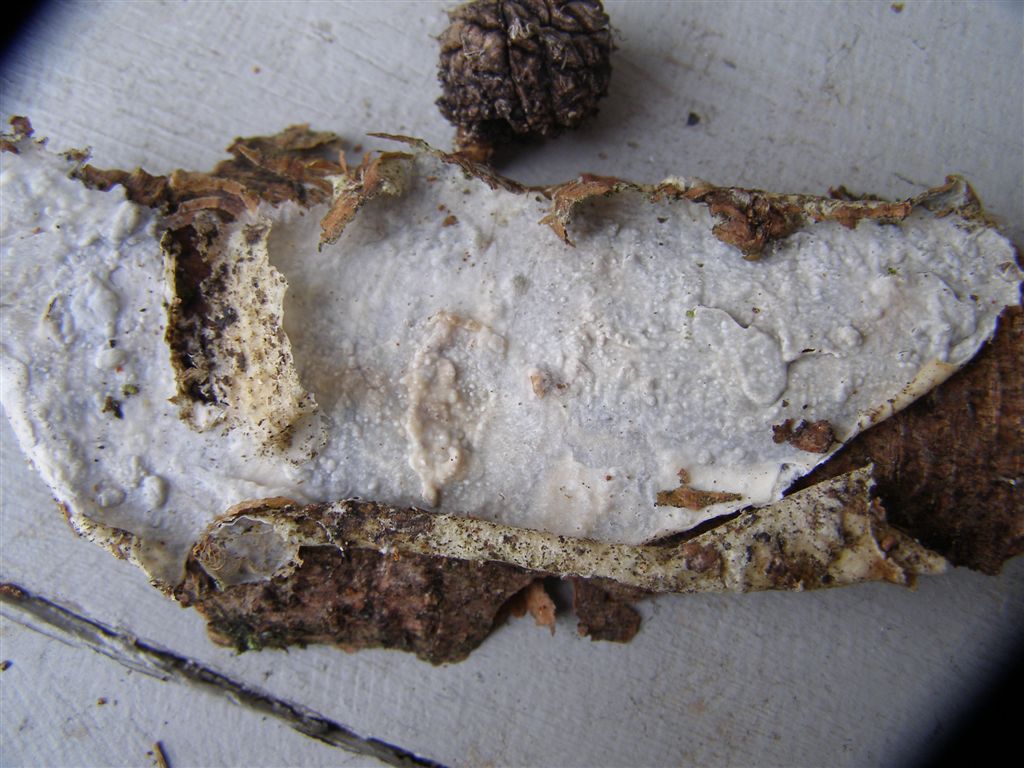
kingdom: Fungi
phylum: Basidiomycota
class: Agaricomycetes
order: Polyporales
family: Phanerochaetaceae
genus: Phlebiopsis
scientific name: Phlebiopsis gigantea
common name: kæmpebarksvamp
